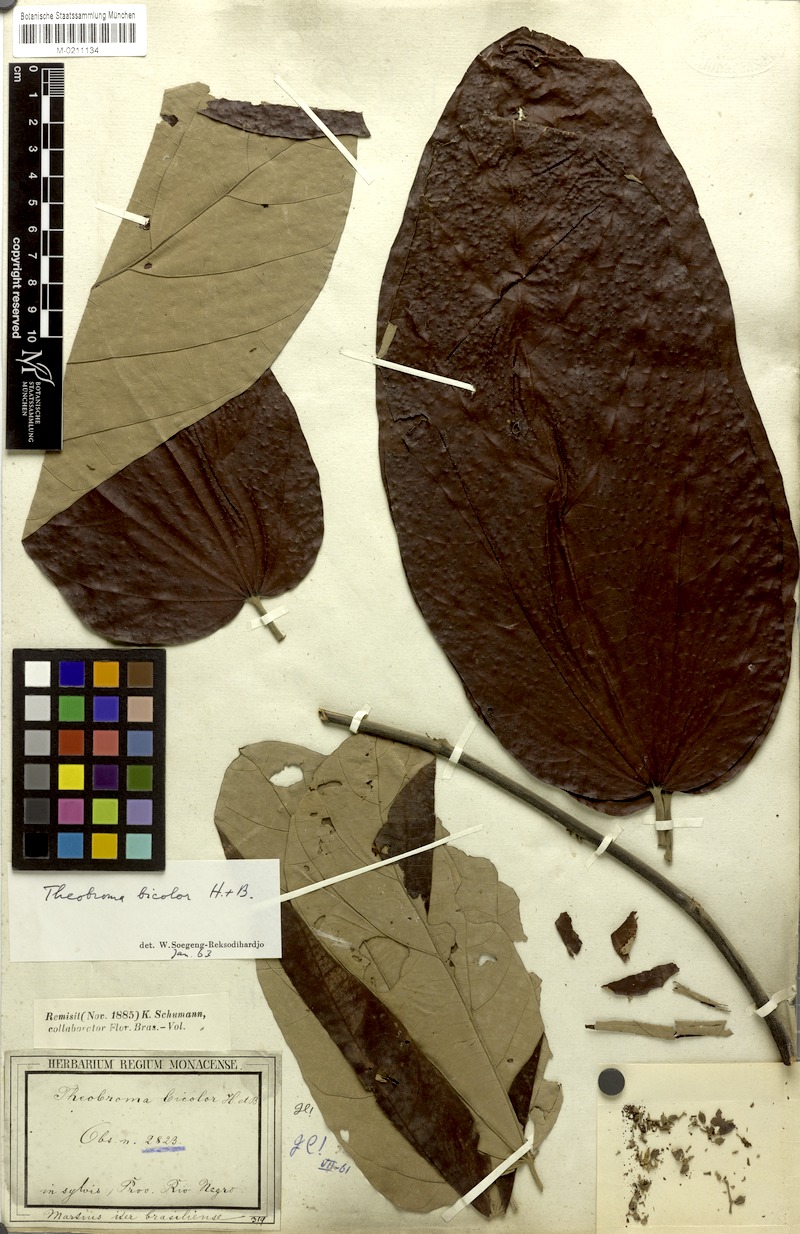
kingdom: Plantae
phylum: Tracheophyta
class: Magnoliopsida
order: Malvales
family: Malvaceae
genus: Theobroma
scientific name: Theobroma bicolor
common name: Macambo tree
